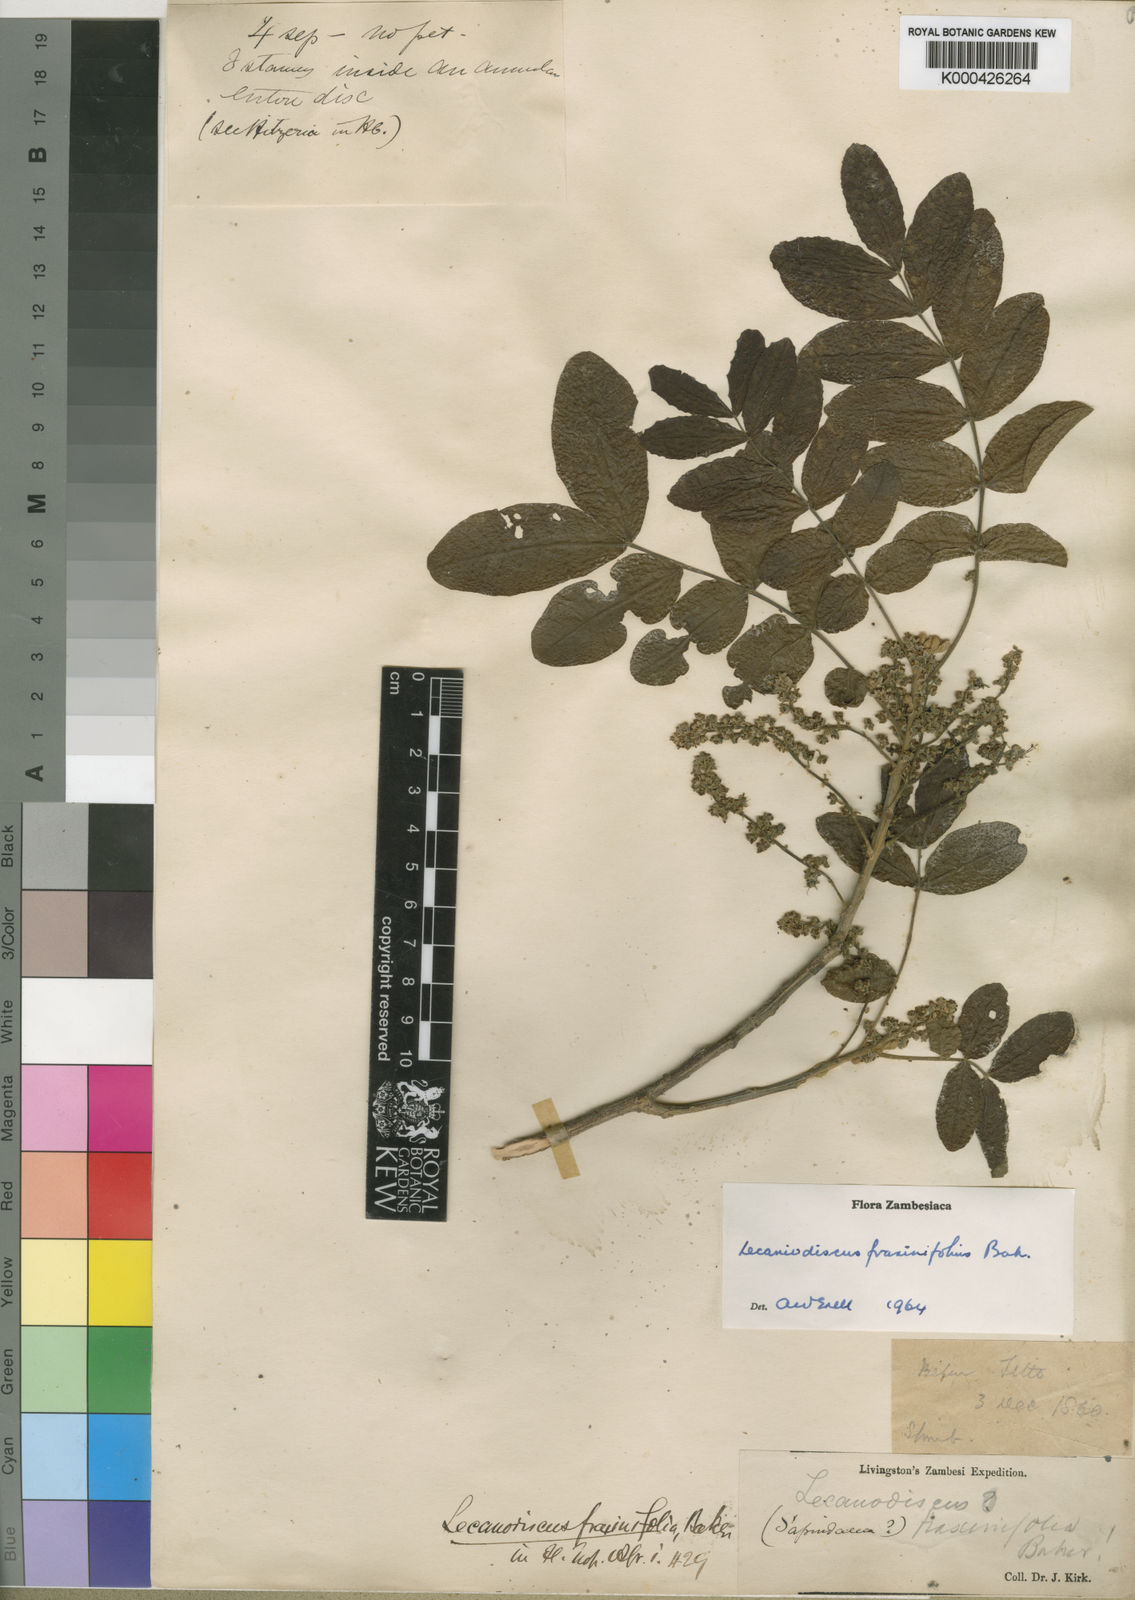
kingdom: Plantae
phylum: Tracheophyta
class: Magnoliopsida
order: Sapindales
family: Sapindaceae
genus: Lecaniodiscus
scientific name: Lecaniodiscus fraxinifolius
